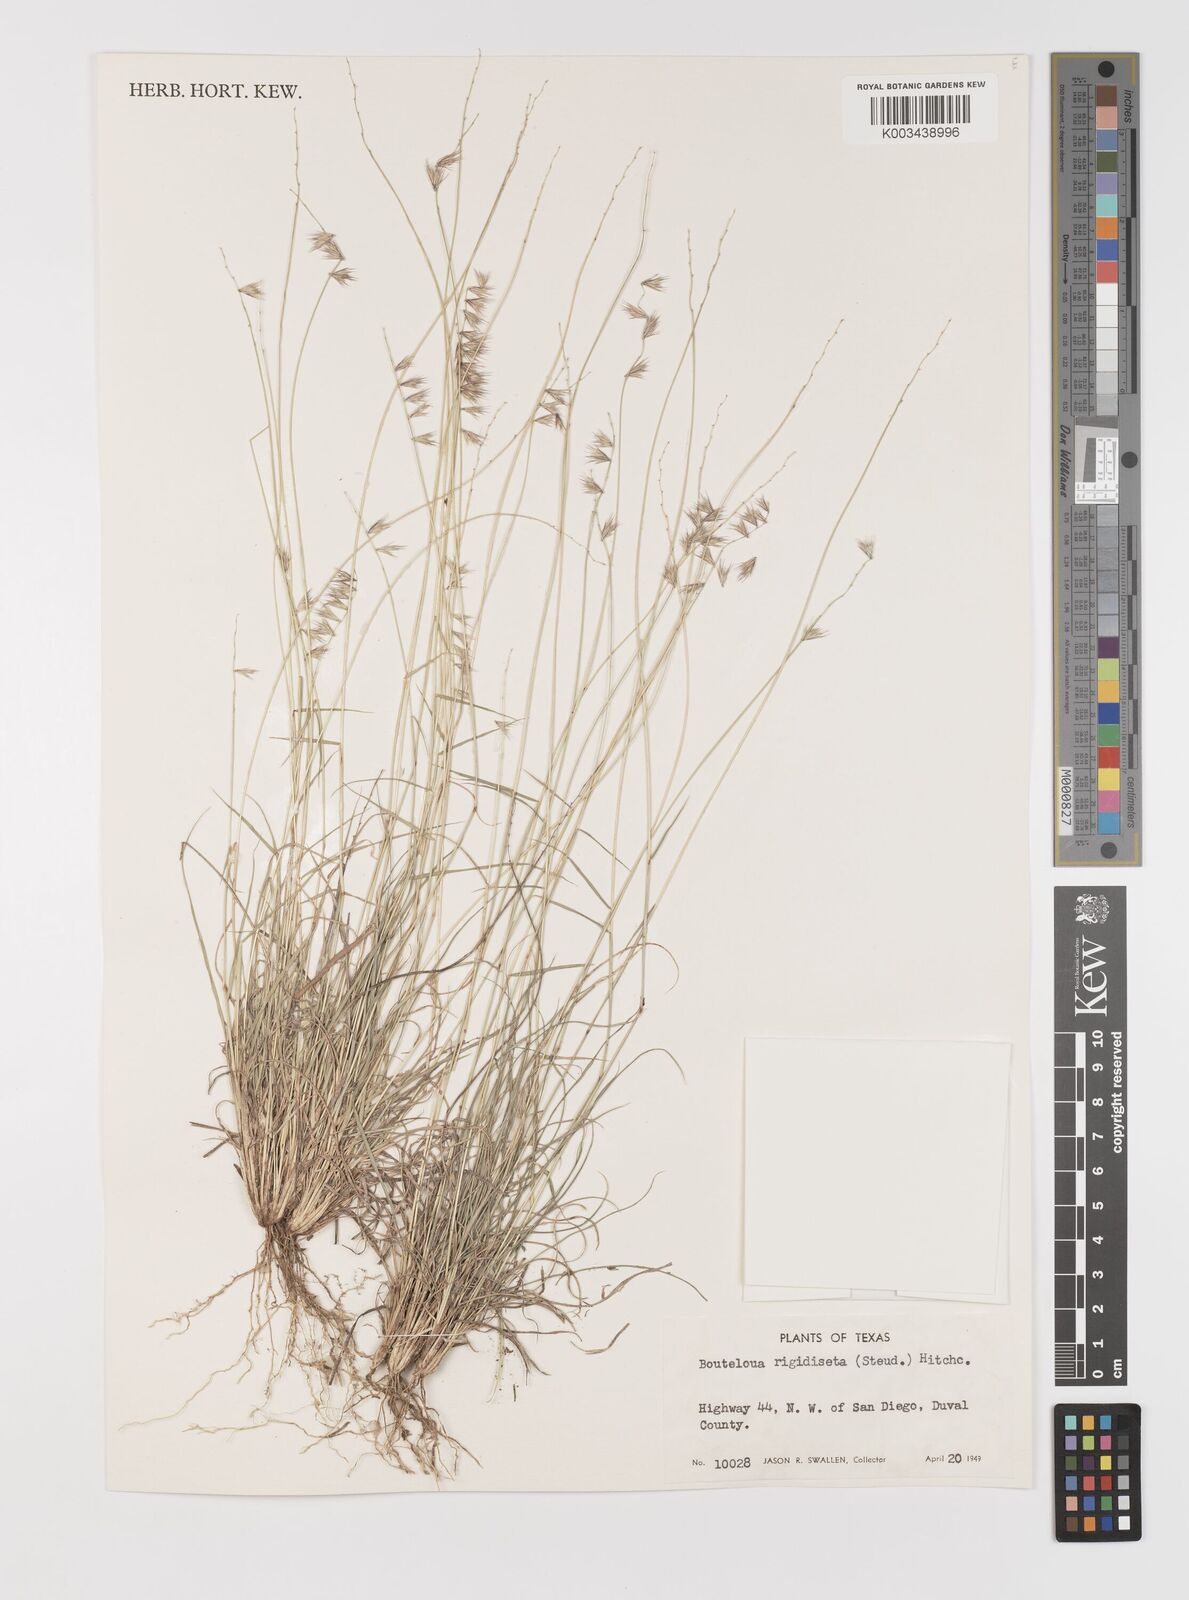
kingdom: Plantae
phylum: Tracheophyta
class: Liliopsida
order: Poales
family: Poaceae
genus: Bouteloua
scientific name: Bouteloua rigidiseta
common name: Texas grama
